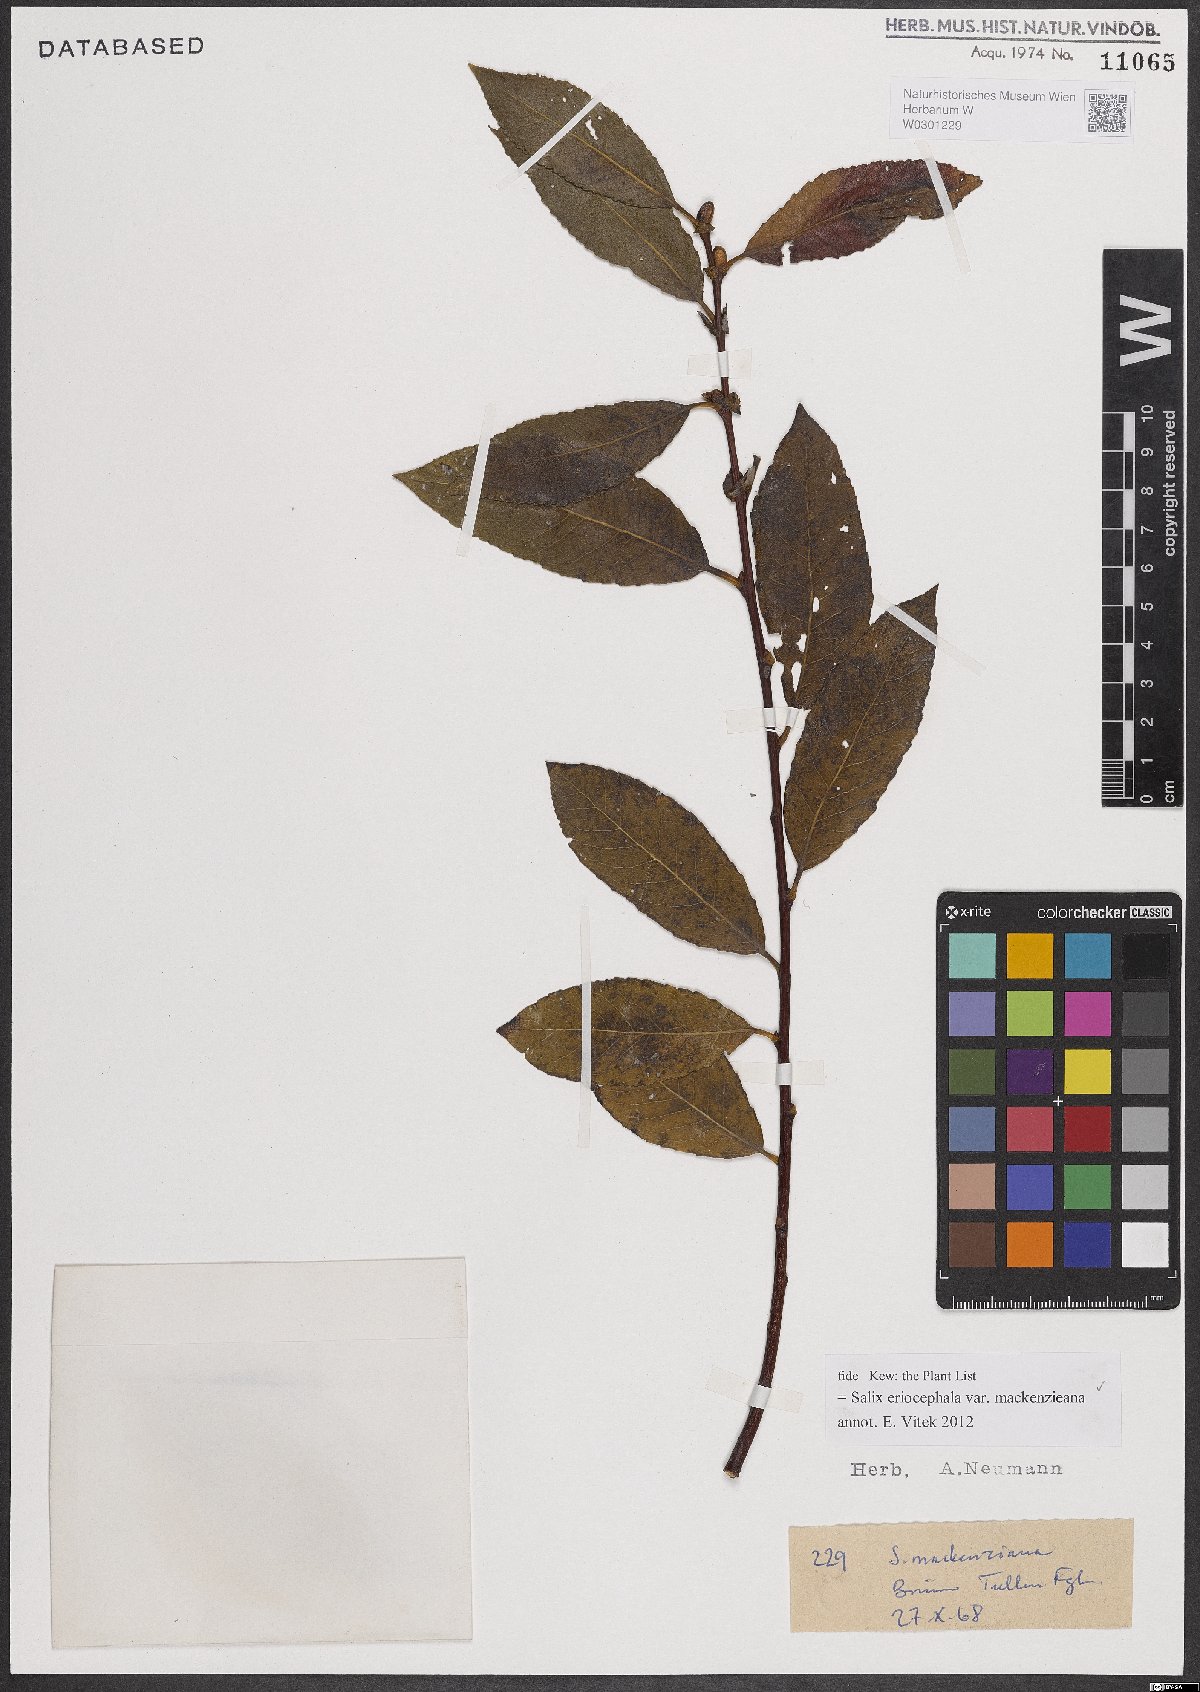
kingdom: Plantae
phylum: Tracheophyta
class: Magnoliopsida
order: Malpighiales
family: Salicaceae
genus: Salix
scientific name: Salix prolixa
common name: Mackenzie's willow
